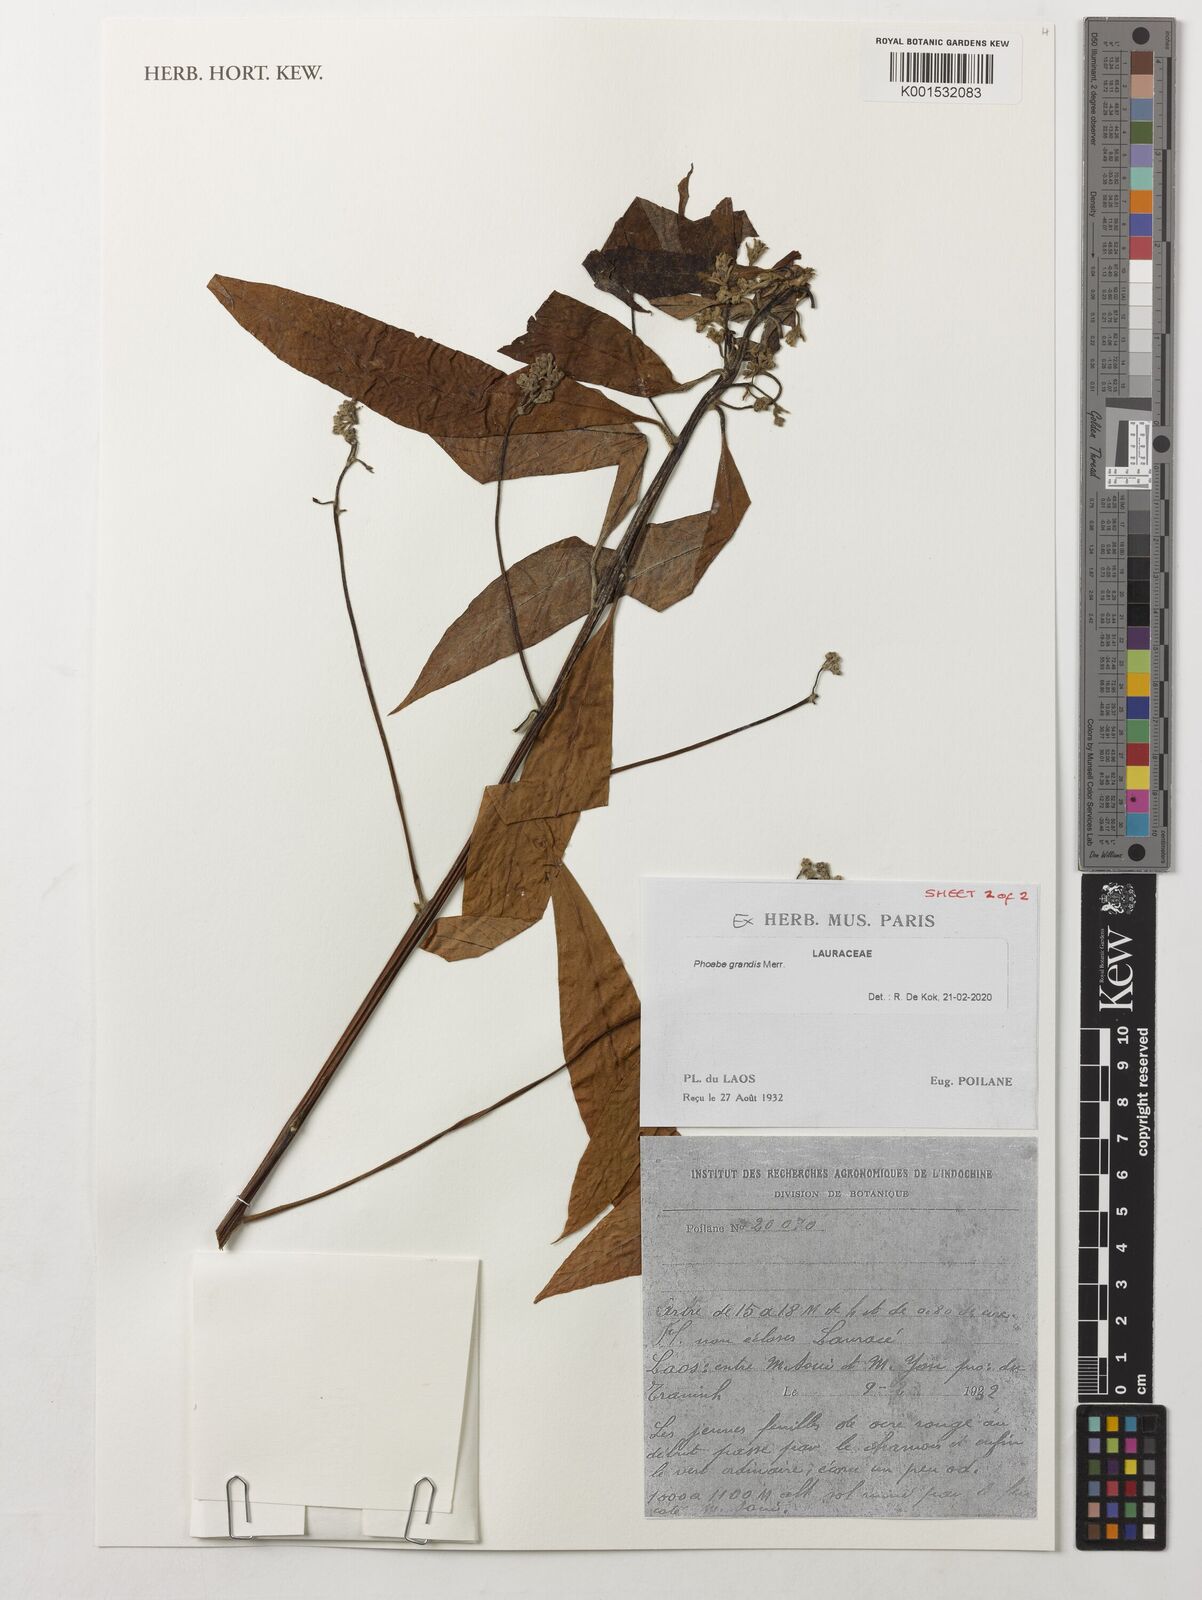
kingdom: Plantae
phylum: Tracheophyta
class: Magnoliopsida
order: Laurales
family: Lauraceae
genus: Phoebe
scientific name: Phoebe grandis
